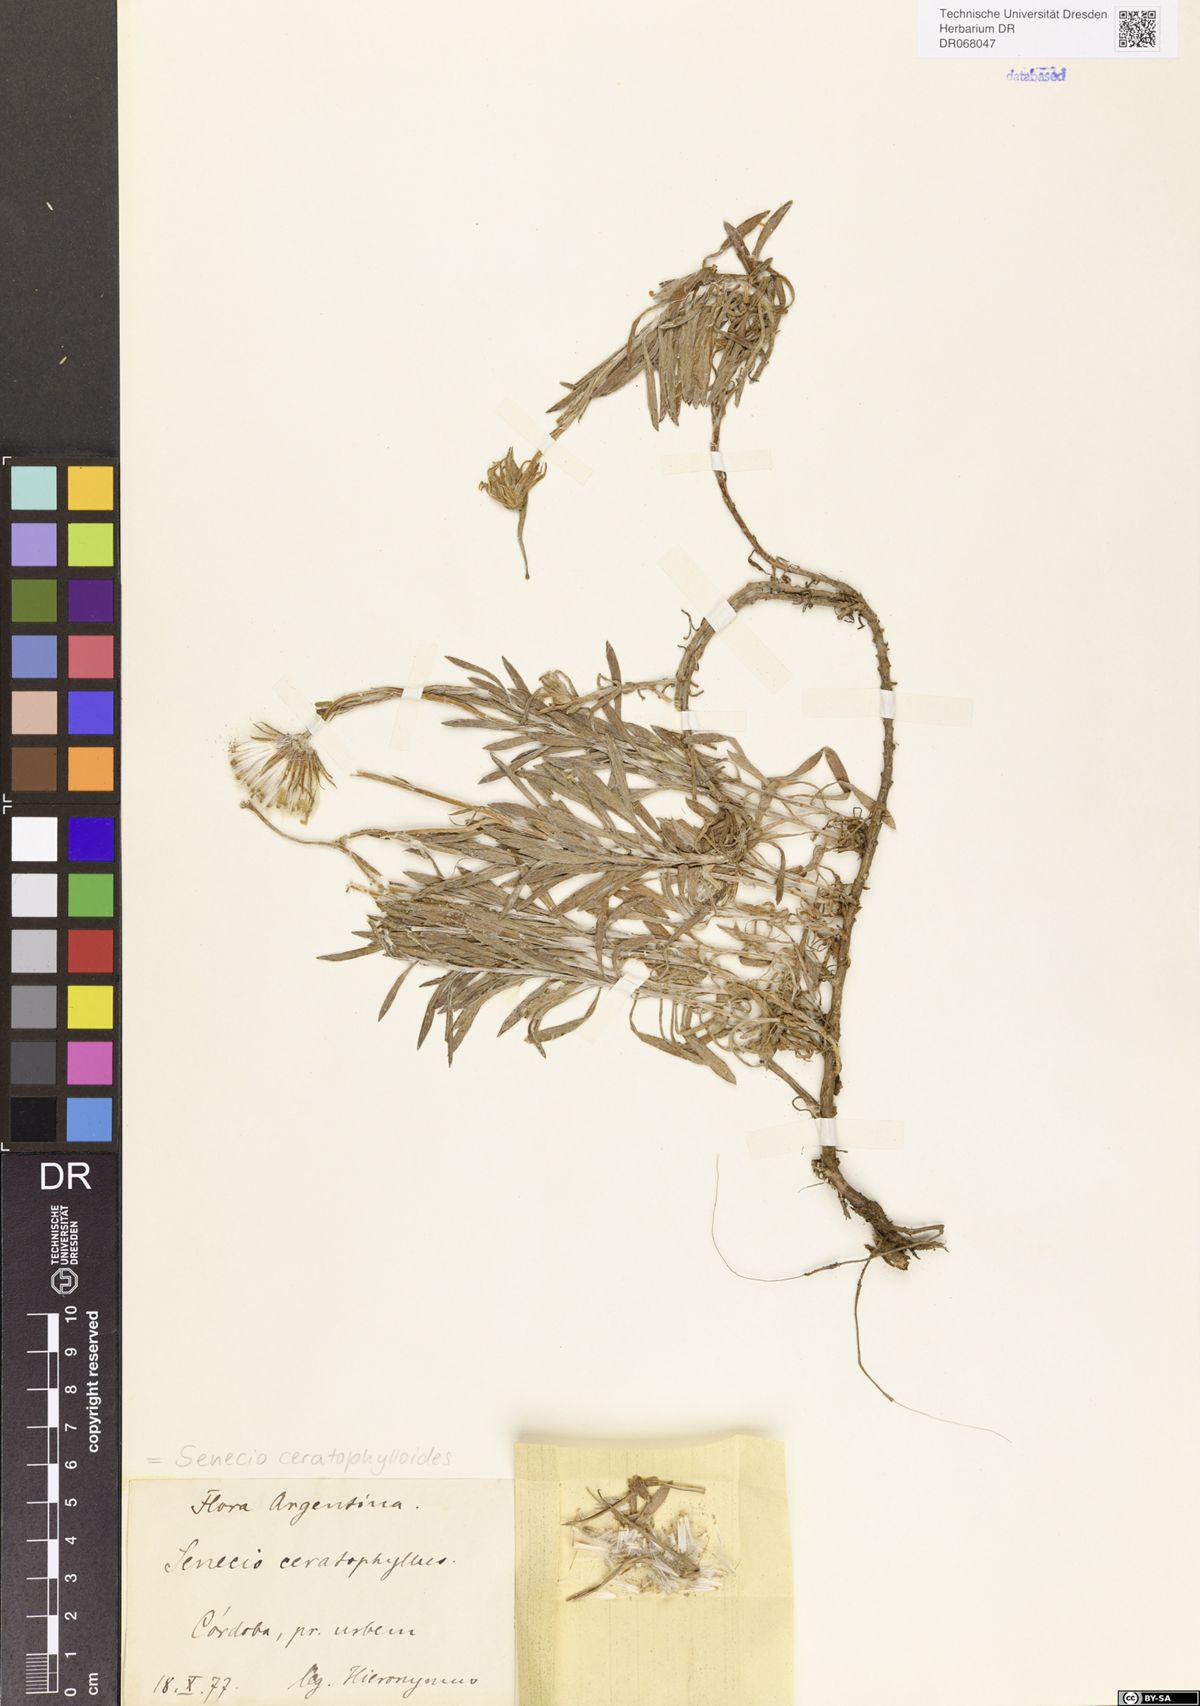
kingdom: Plantae
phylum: Tracheophyta
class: Magnoliopsida
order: Asterales
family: Asteraceae
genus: Senecio
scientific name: Senecio ceratophylloides
